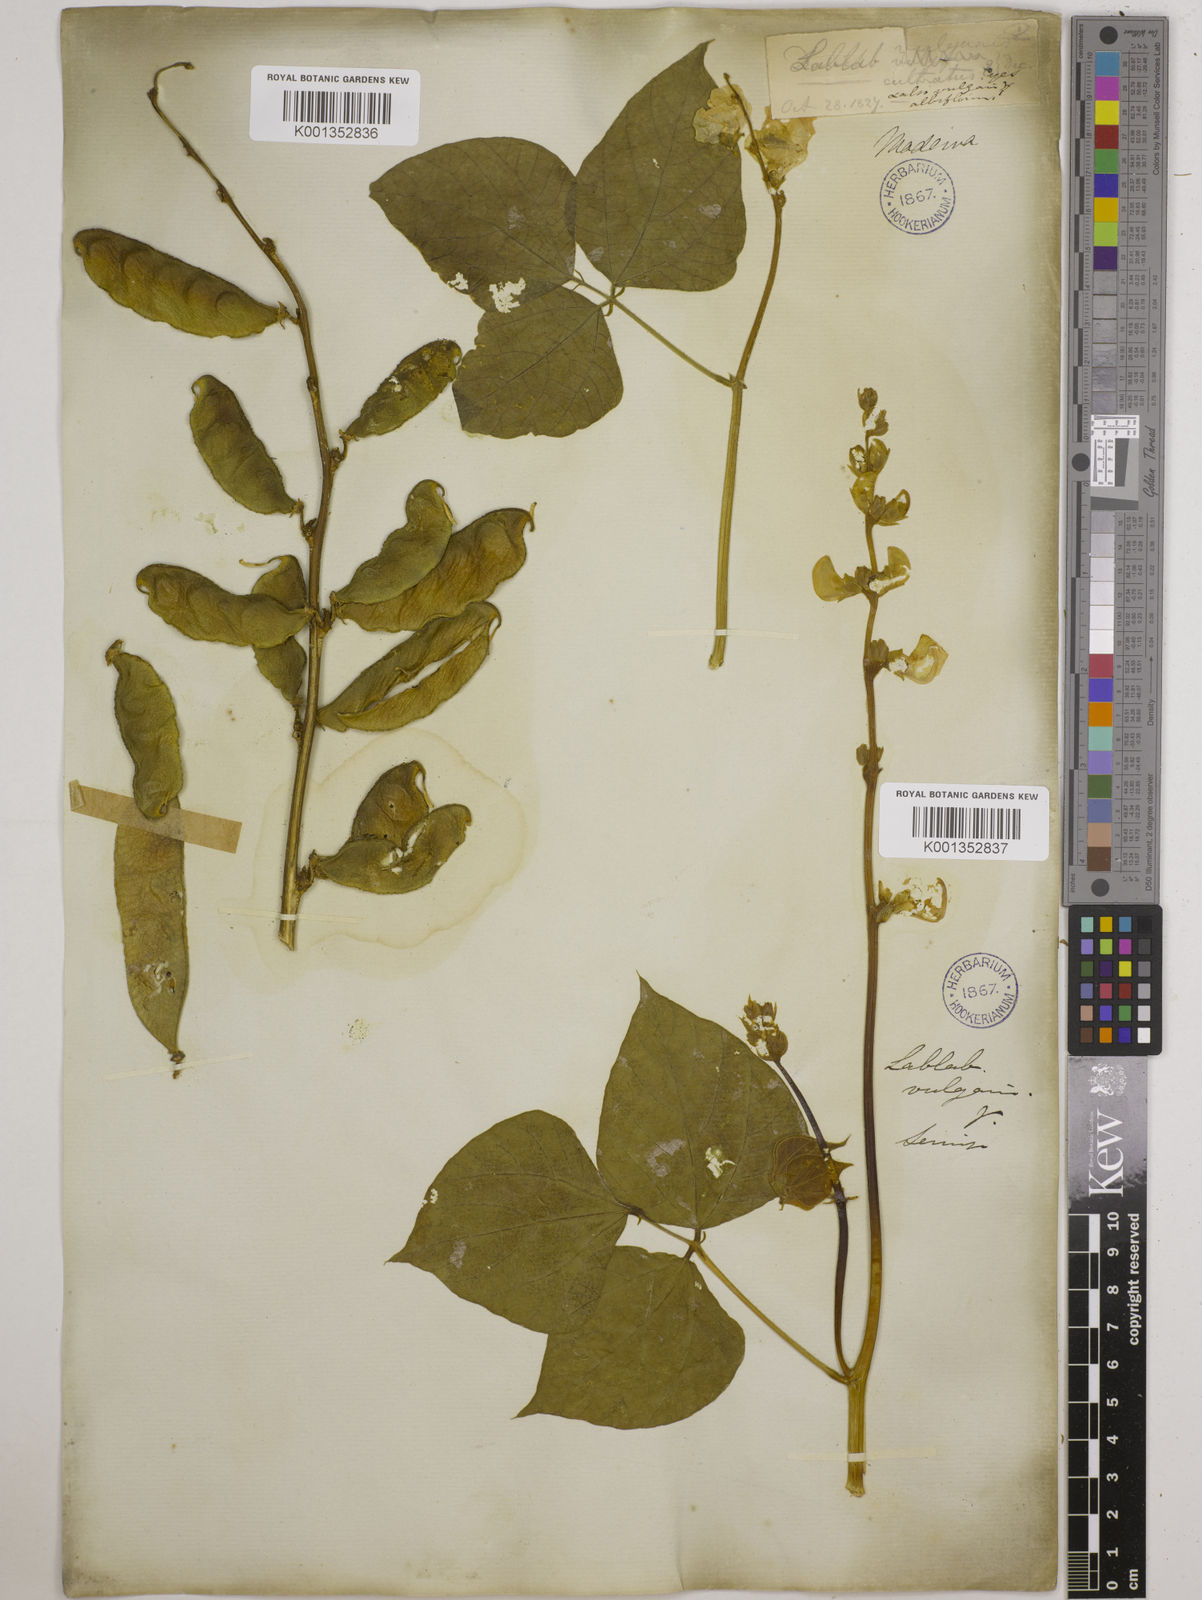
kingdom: Plantae
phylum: Tracheophyta
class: Magnoliopsida
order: Fabales
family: Fabaceae
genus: Lablab
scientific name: Lablab purpureus
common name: Lablab-bean
